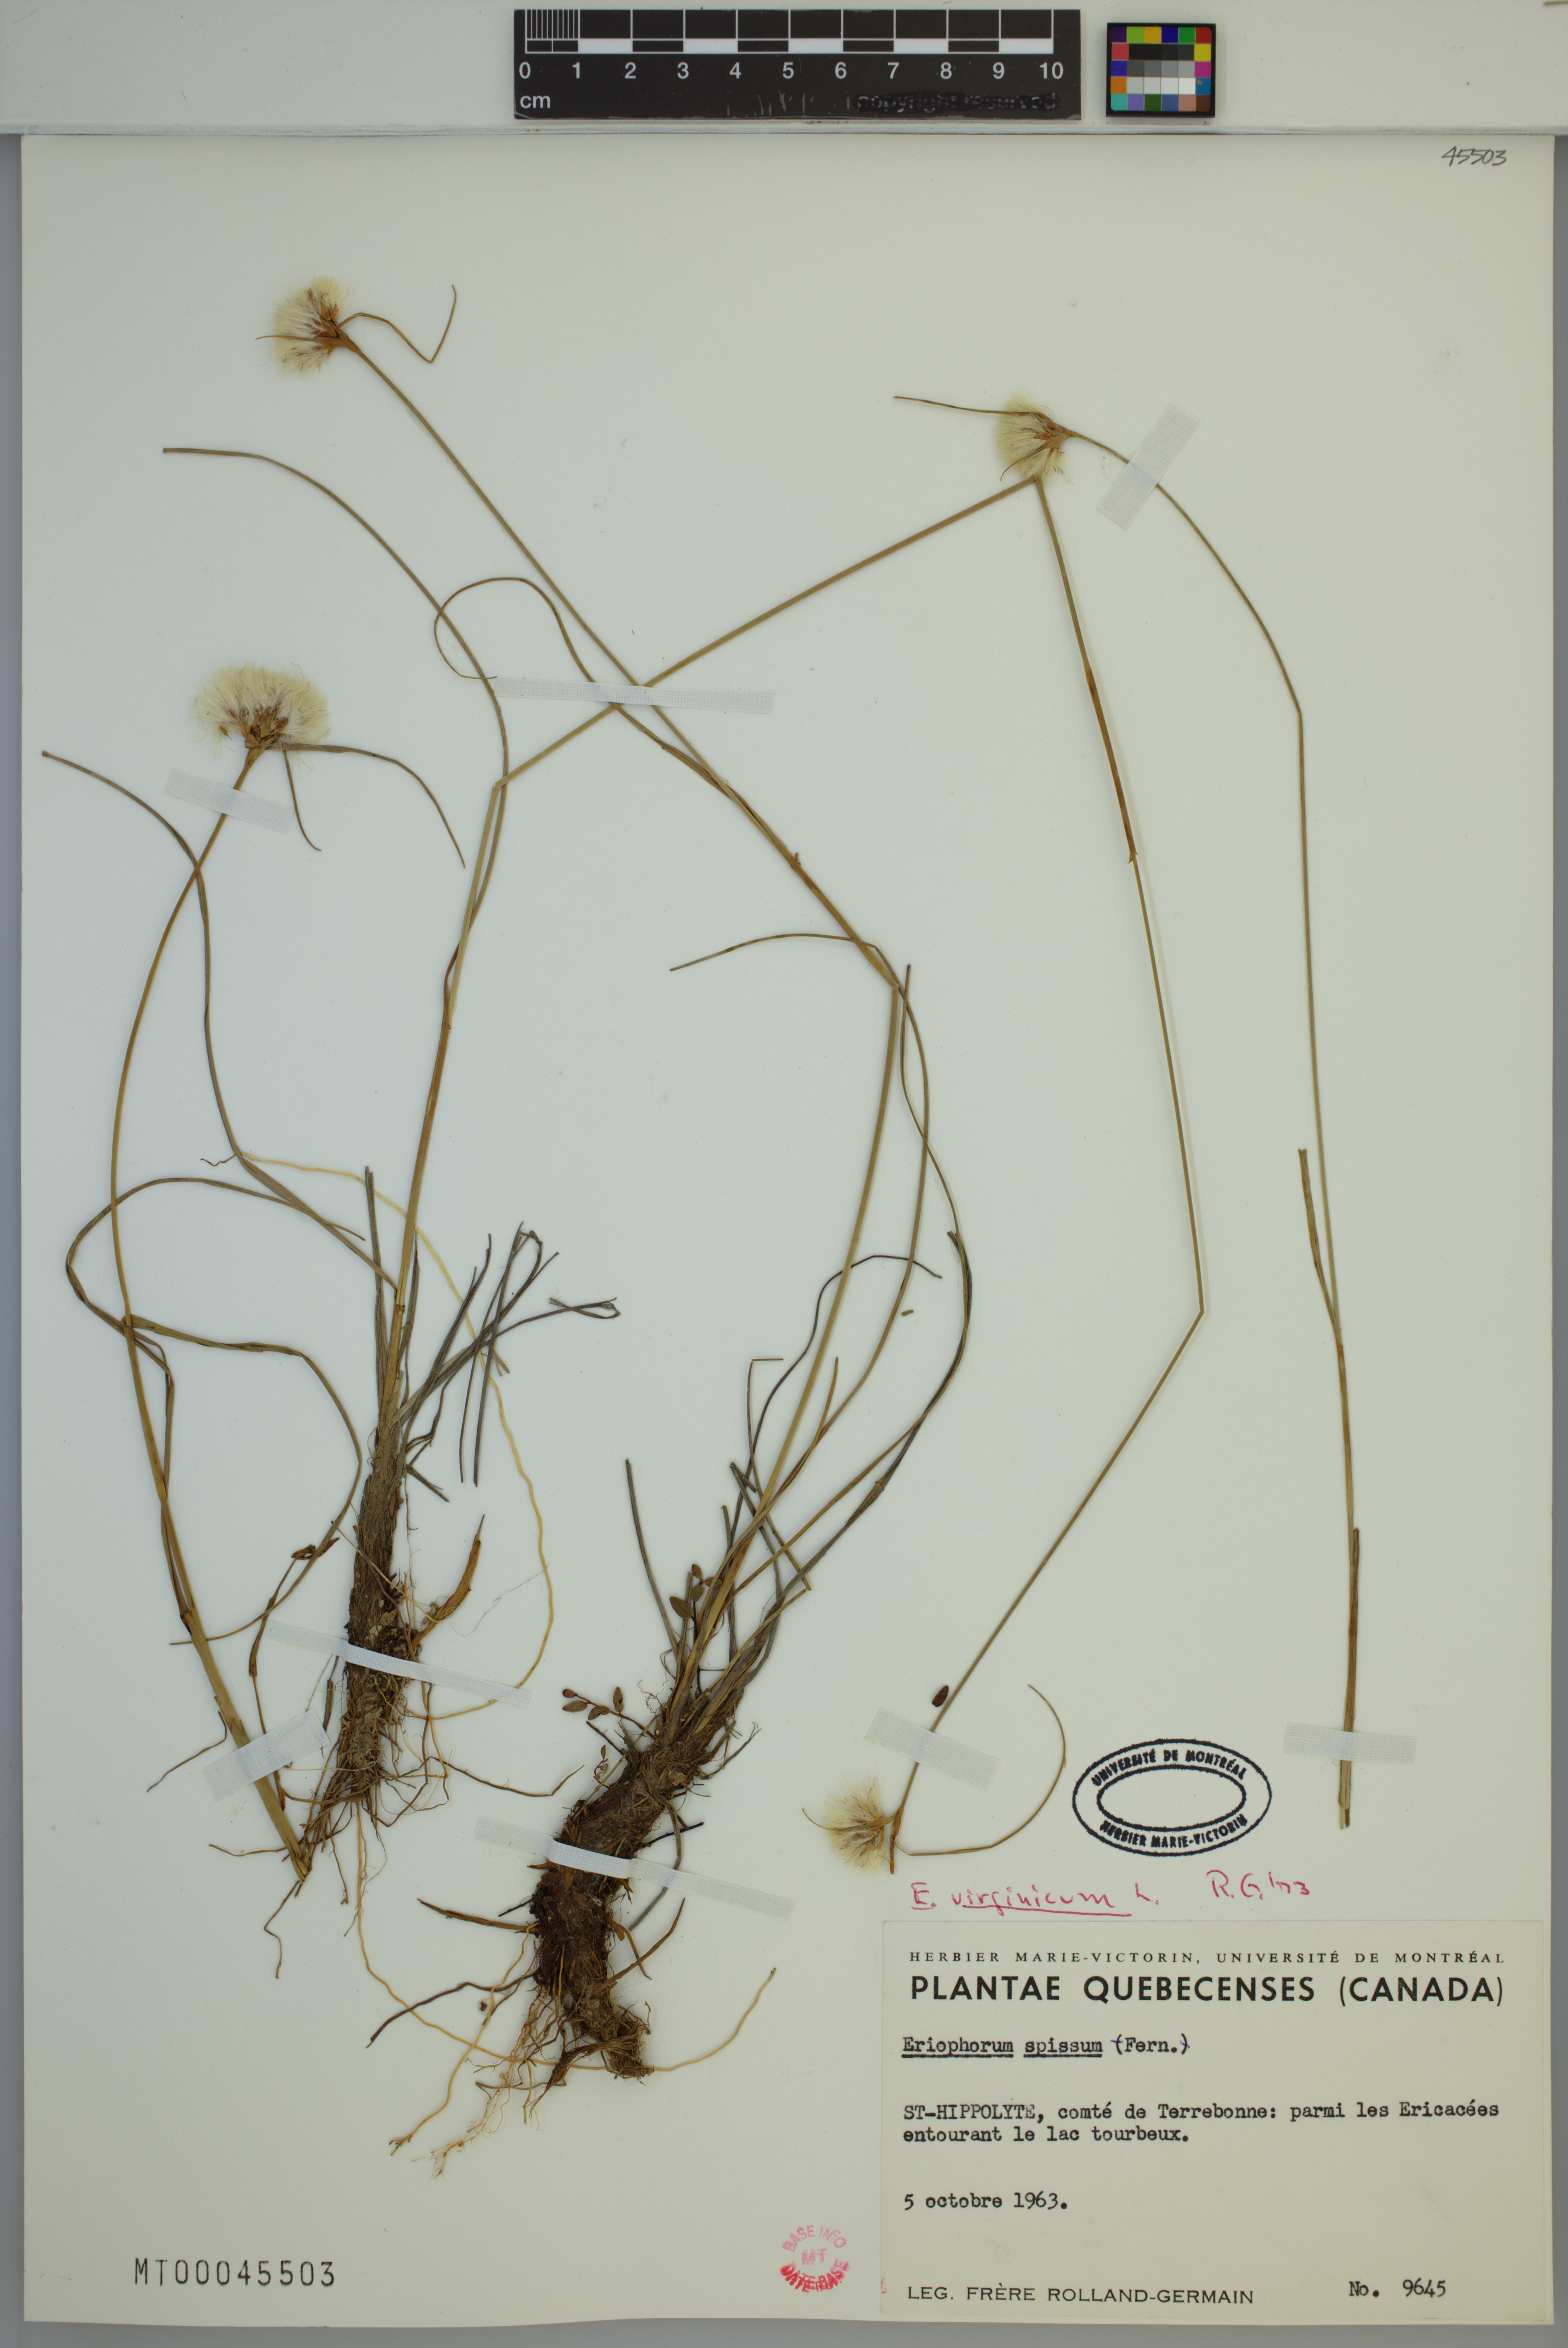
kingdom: Plantae
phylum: Tracheophyta
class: Liliopsida
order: Poales
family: Cyperaceae
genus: Eriophorum
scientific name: Eriophorum virginicum
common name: Tawny cottongrass
